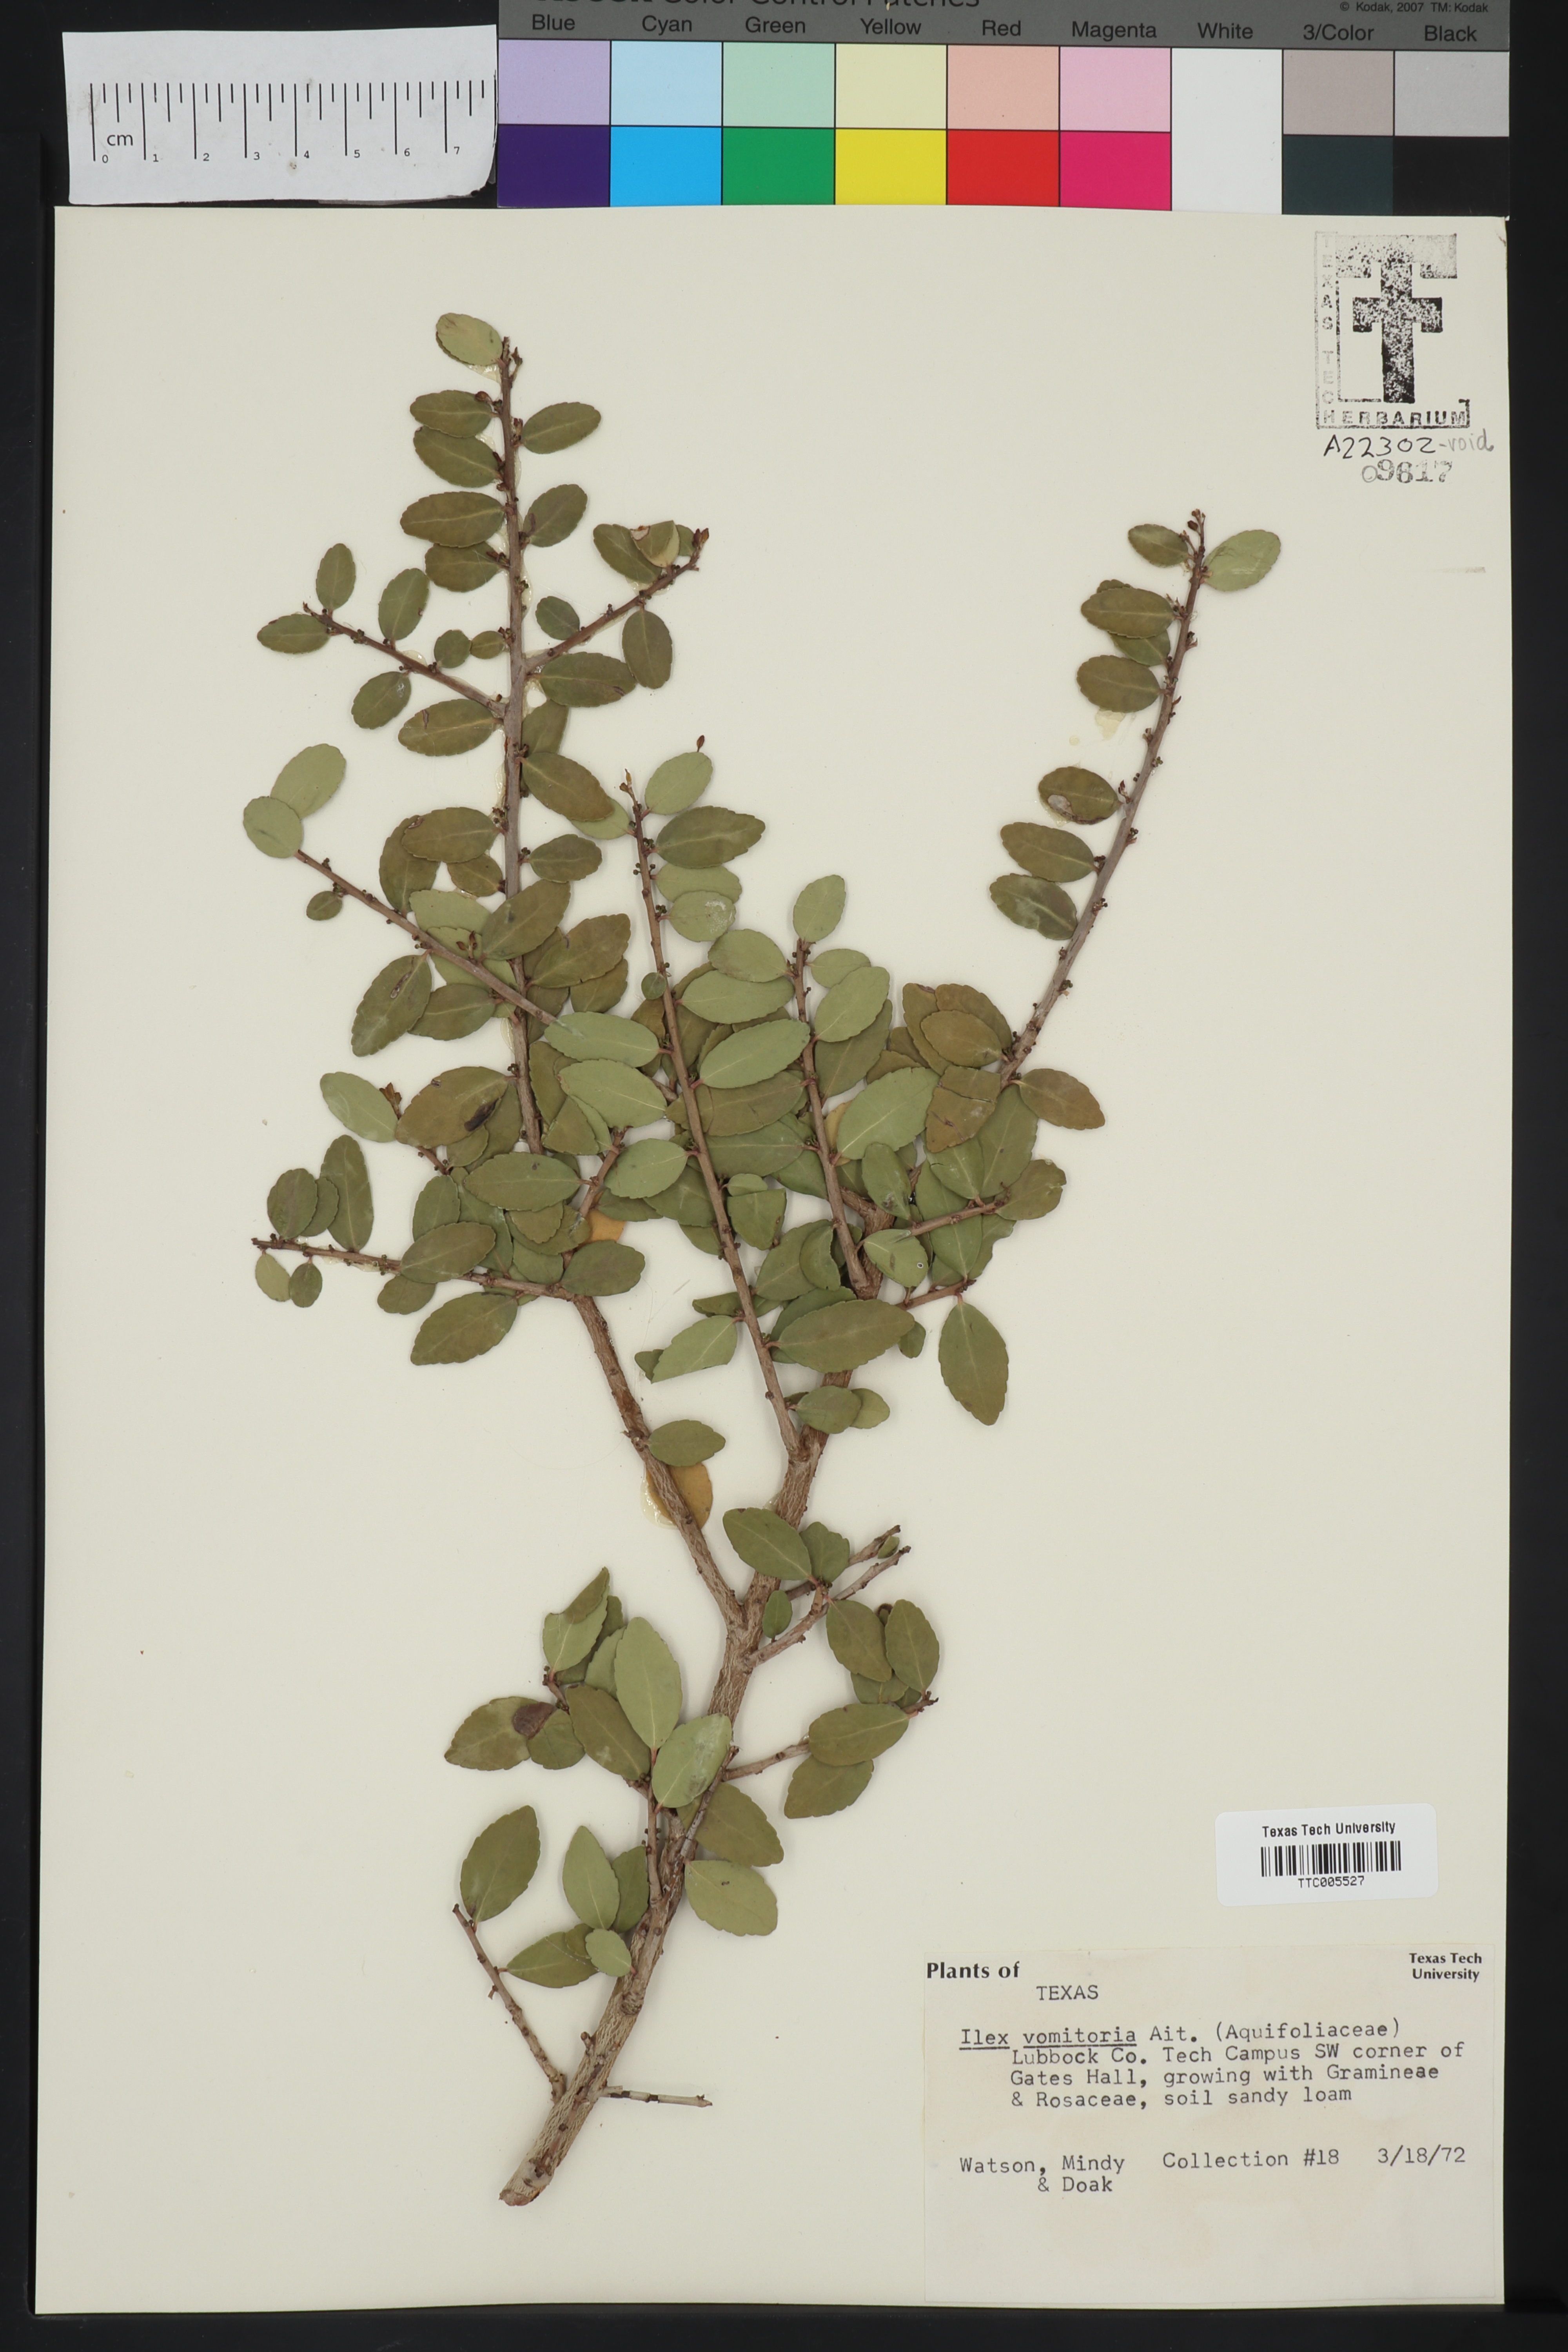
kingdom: Plantae
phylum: Tracheophyta
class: Magnoliopsida
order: Aquifoliales
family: Aquifoliaceae
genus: Ilex
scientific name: Ilex vomitoria
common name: Yaupon holly
